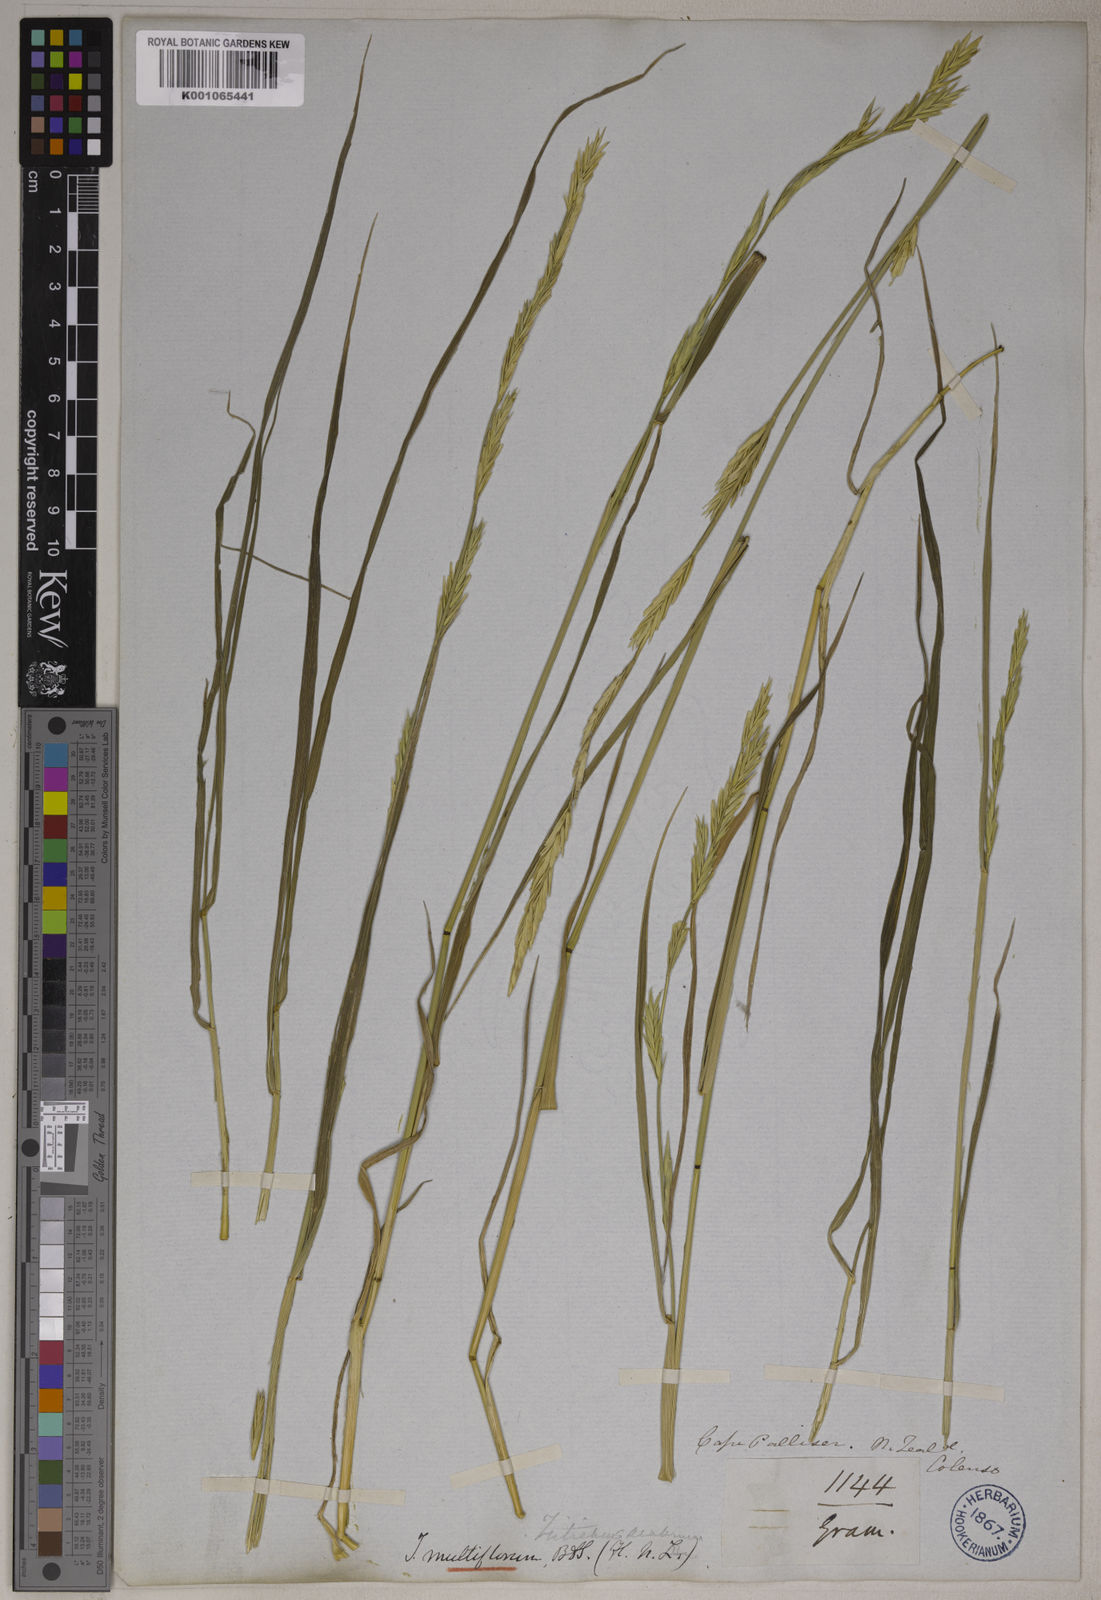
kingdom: Plantae
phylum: Tracheophyta
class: Liliopsida
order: Poales
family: Poaceae
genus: Elymus
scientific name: Elymus
